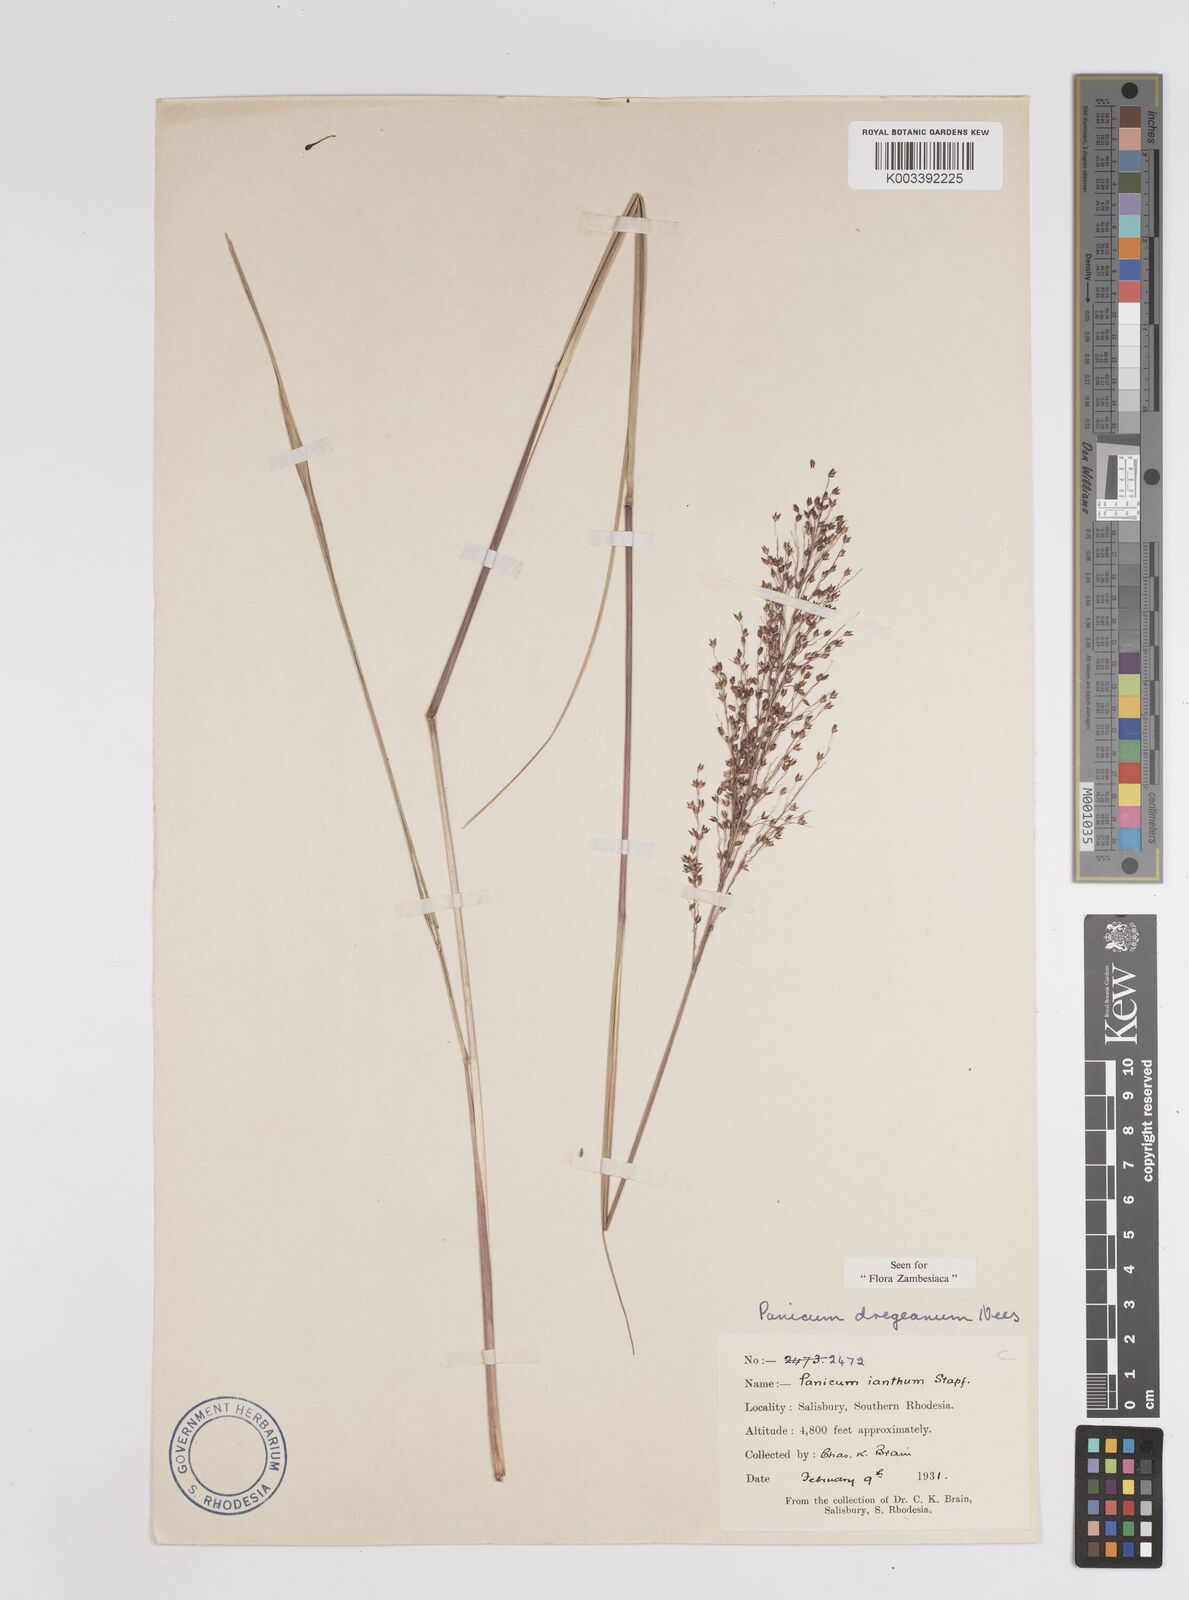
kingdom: Plantae
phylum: Tracheophyta
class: Liliopsida
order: Poales
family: Poaceae
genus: Panicum
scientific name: Panicum dregeanum
